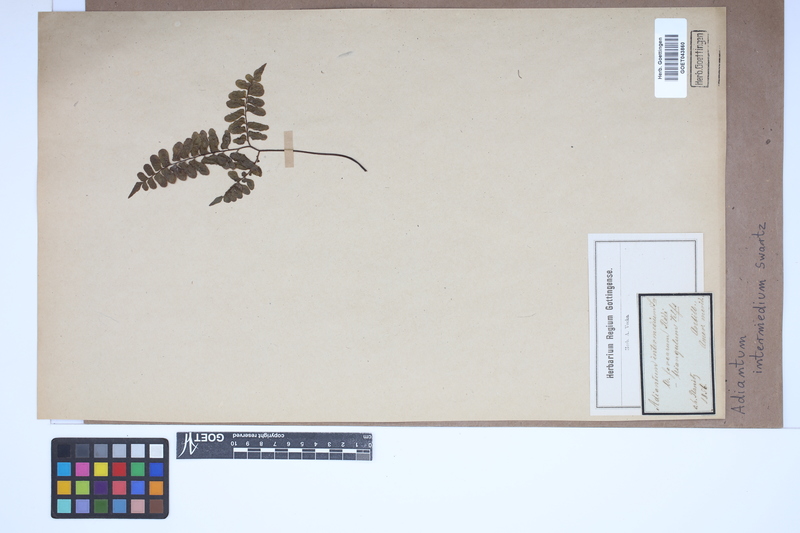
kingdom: Plantae
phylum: Tracheophyta
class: Polypodiopsida
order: Polypodiales
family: Pteridaceae
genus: Adiantum
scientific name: Adiantum intermedium
